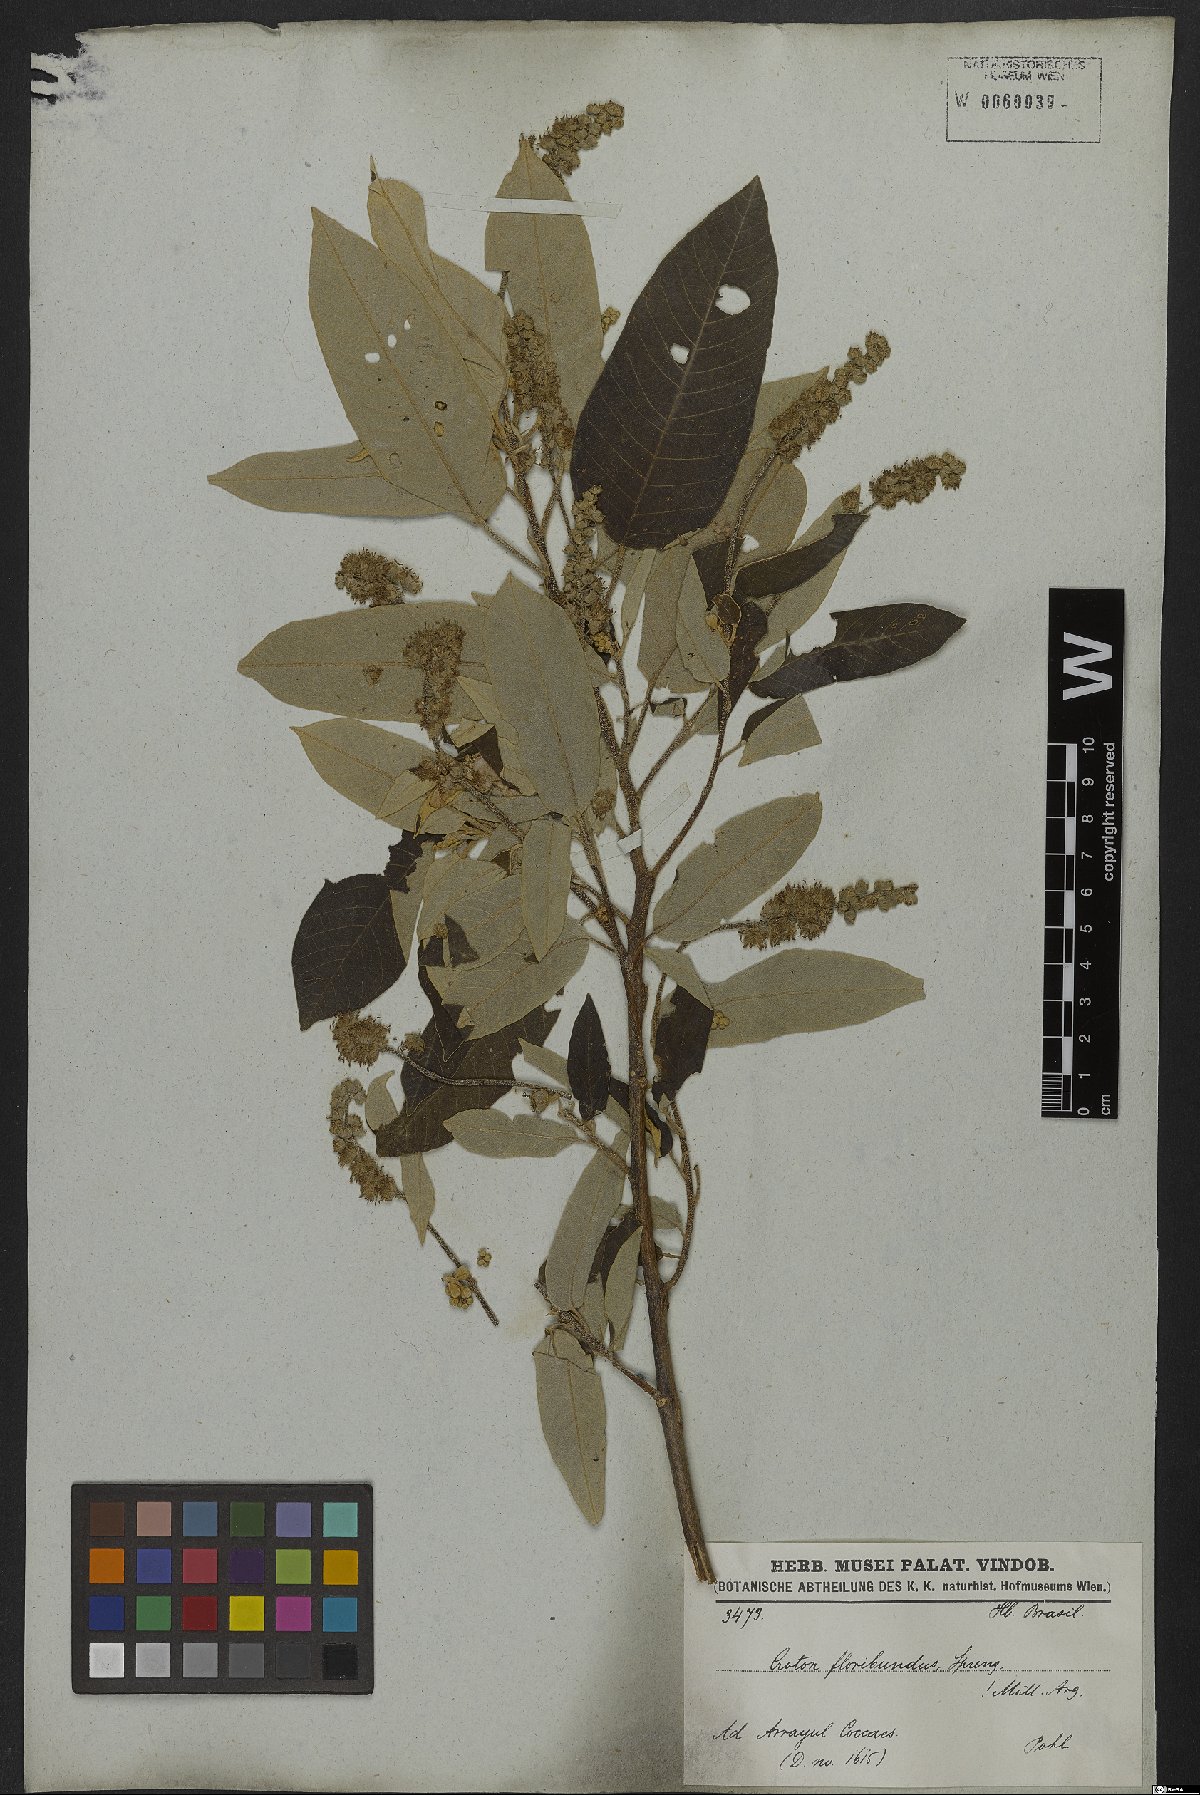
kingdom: Plantae
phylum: Tracheophyta
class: Magnoliopsida
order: Malpighiales
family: Euphorbiaceae
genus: Croton
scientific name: Croton floribundus
